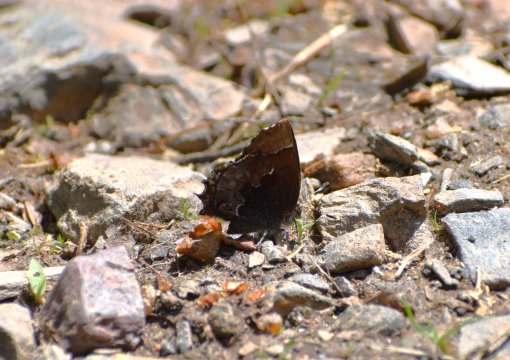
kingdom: Animalia
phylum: Arthropoda
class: Insecta
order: Lepidoptera
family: Lycaenidae
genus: Incisalia
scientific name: Incisalia henrici
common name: Henry's Elfin
